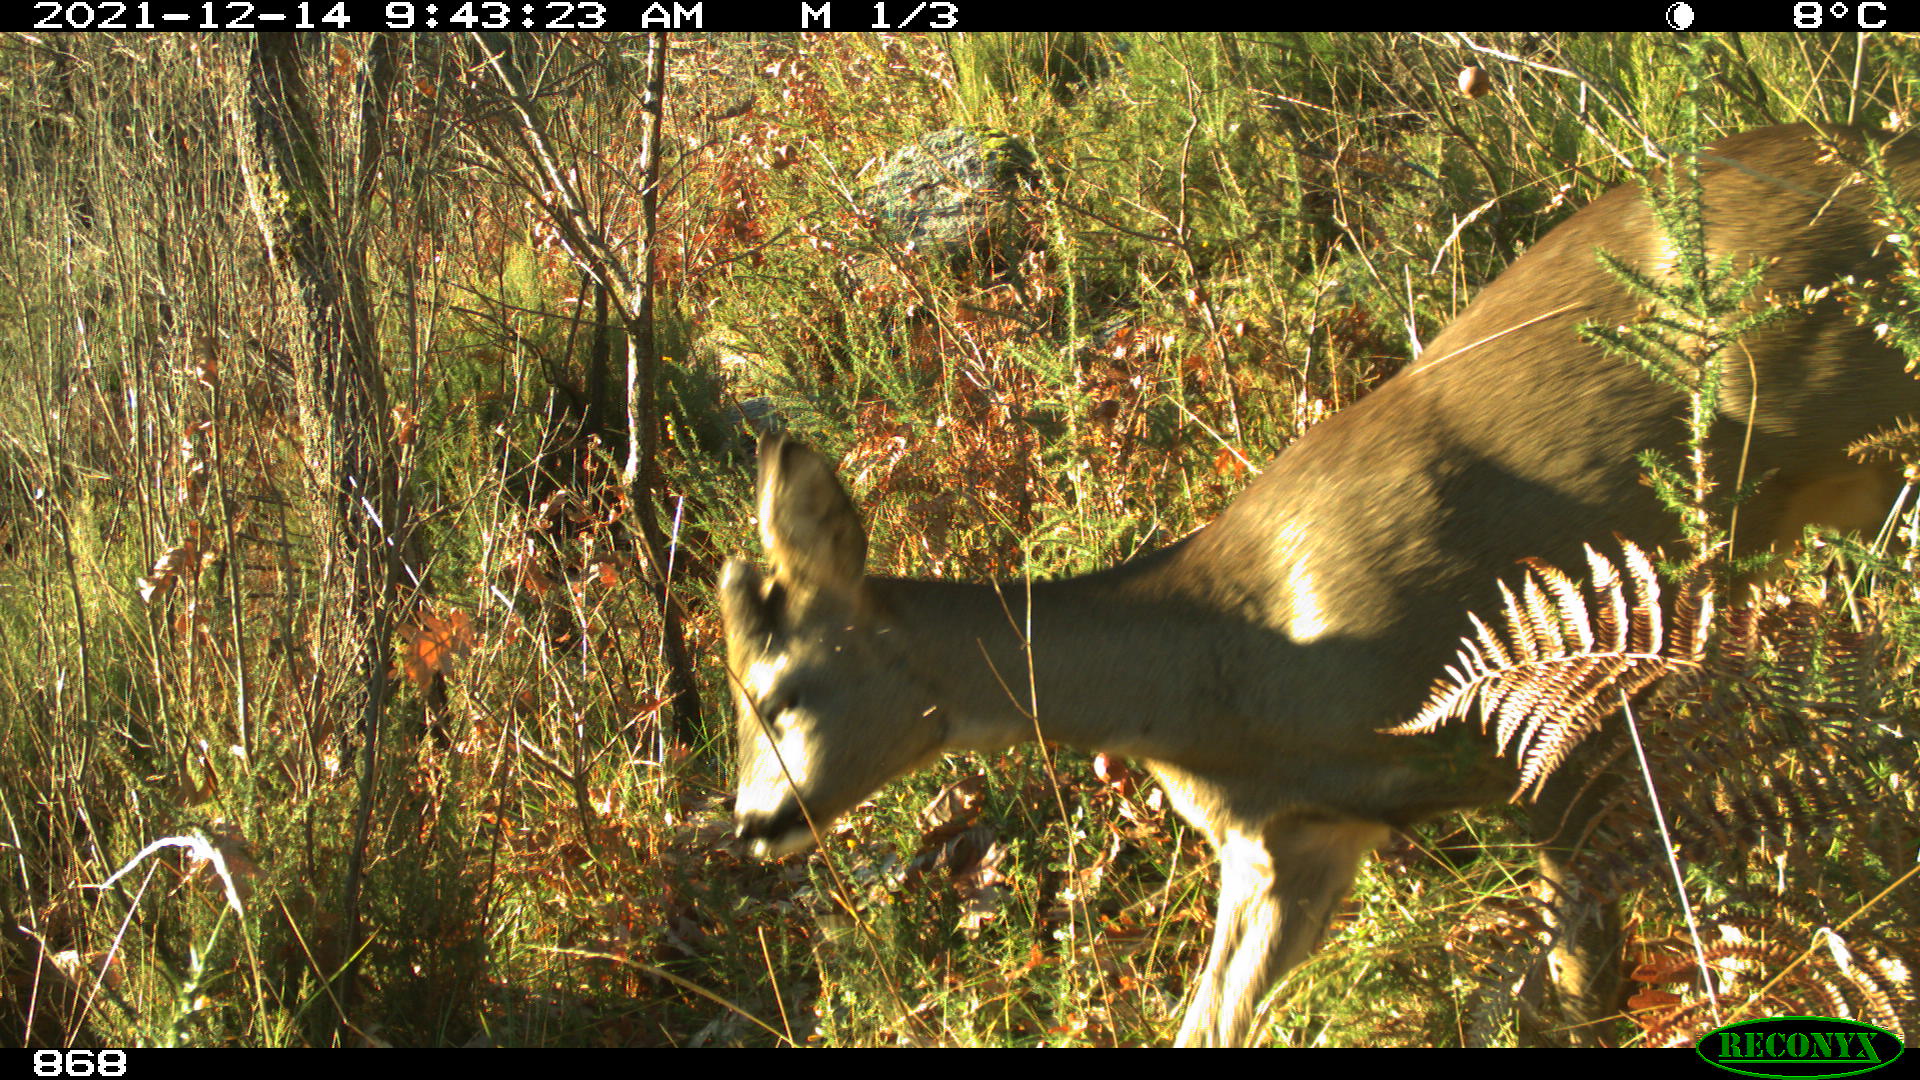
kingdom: Animalia
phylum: Chordata
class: Mammalia
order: Artiodactyla
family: Cervidae
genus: Capreolus
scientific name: Capreolus capreolus
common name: Western roe deer
